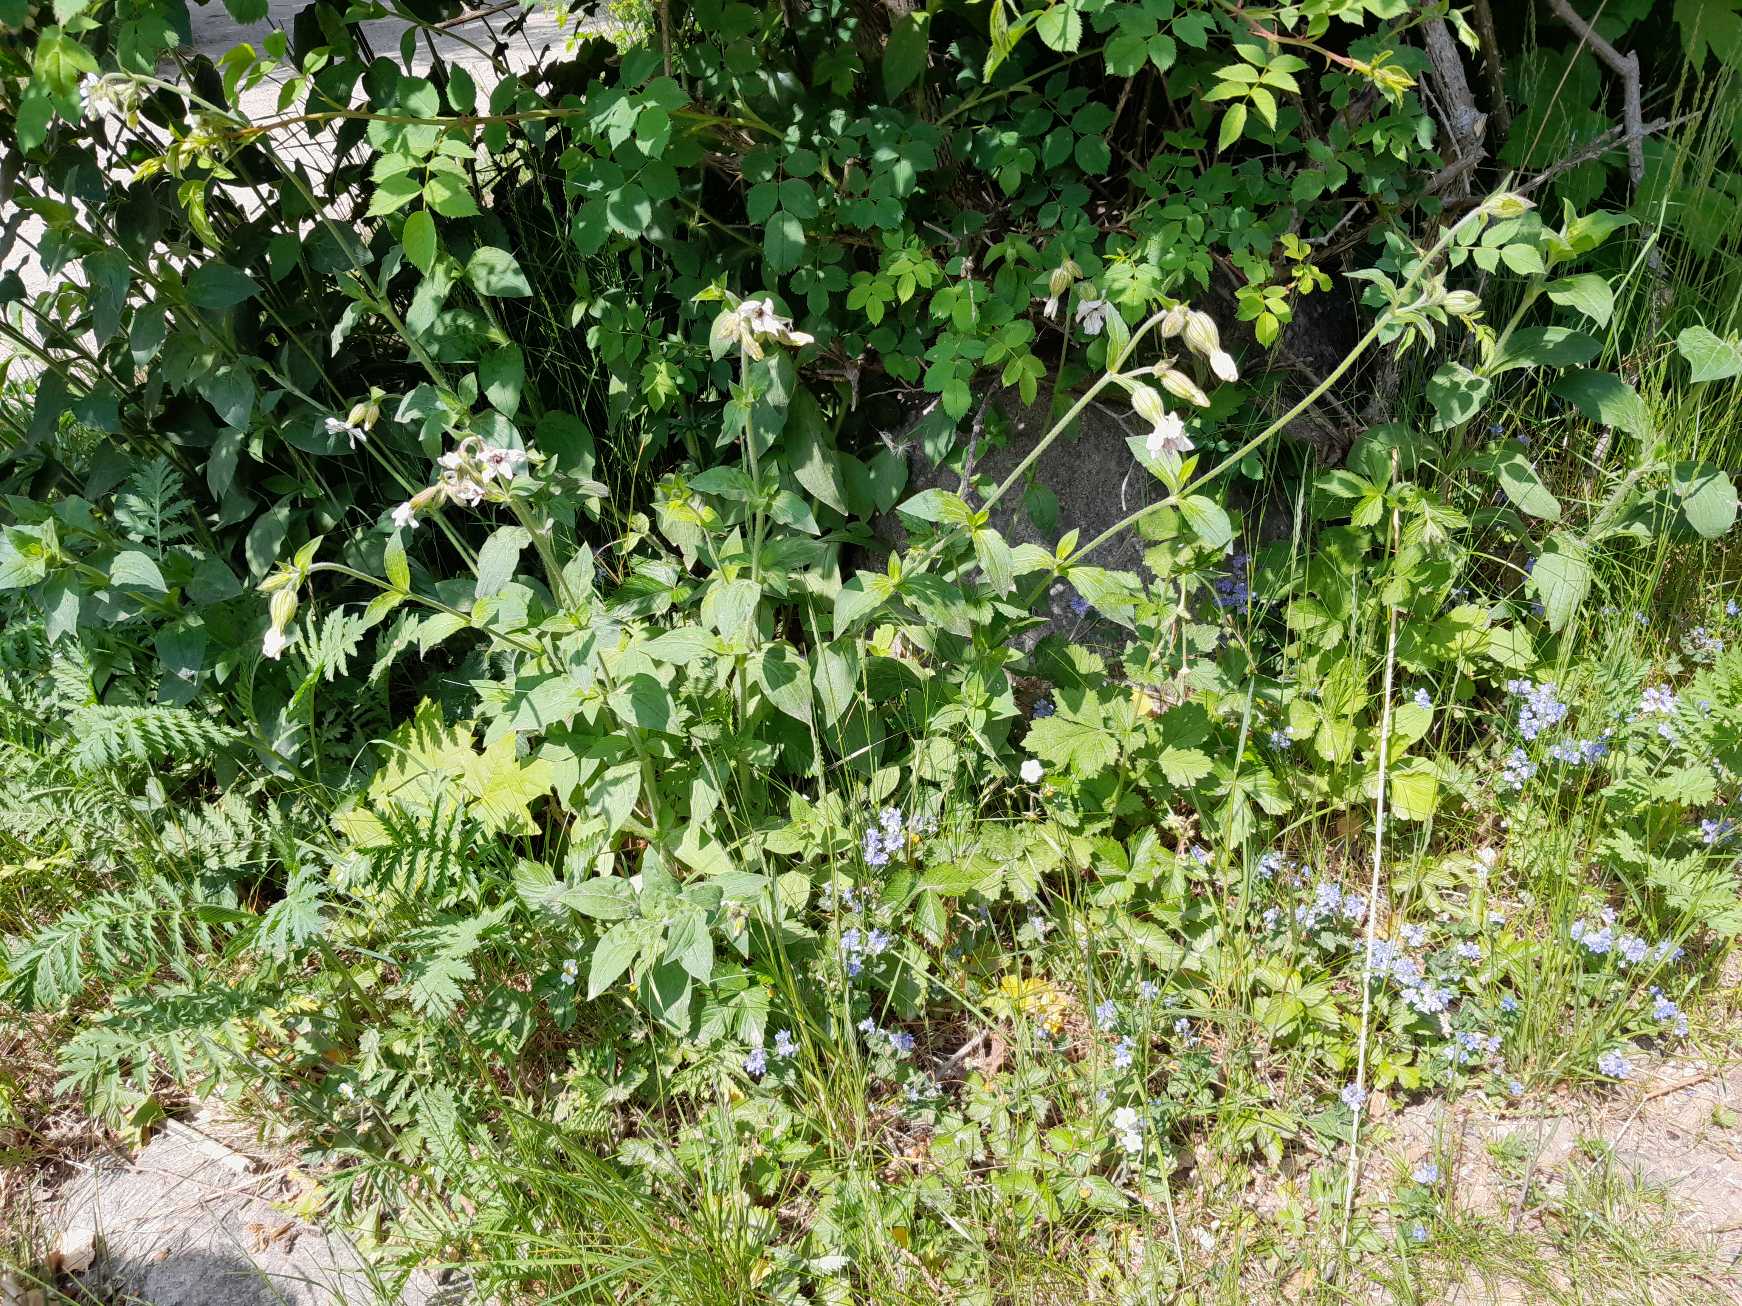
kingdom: Plantae
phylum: Tracheophyta
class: Magnoliopsida
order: Caryophyllales
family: Caryophyllaceae
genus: Silene
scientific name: Silene latifolia
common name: Aftenpragtstjerne
